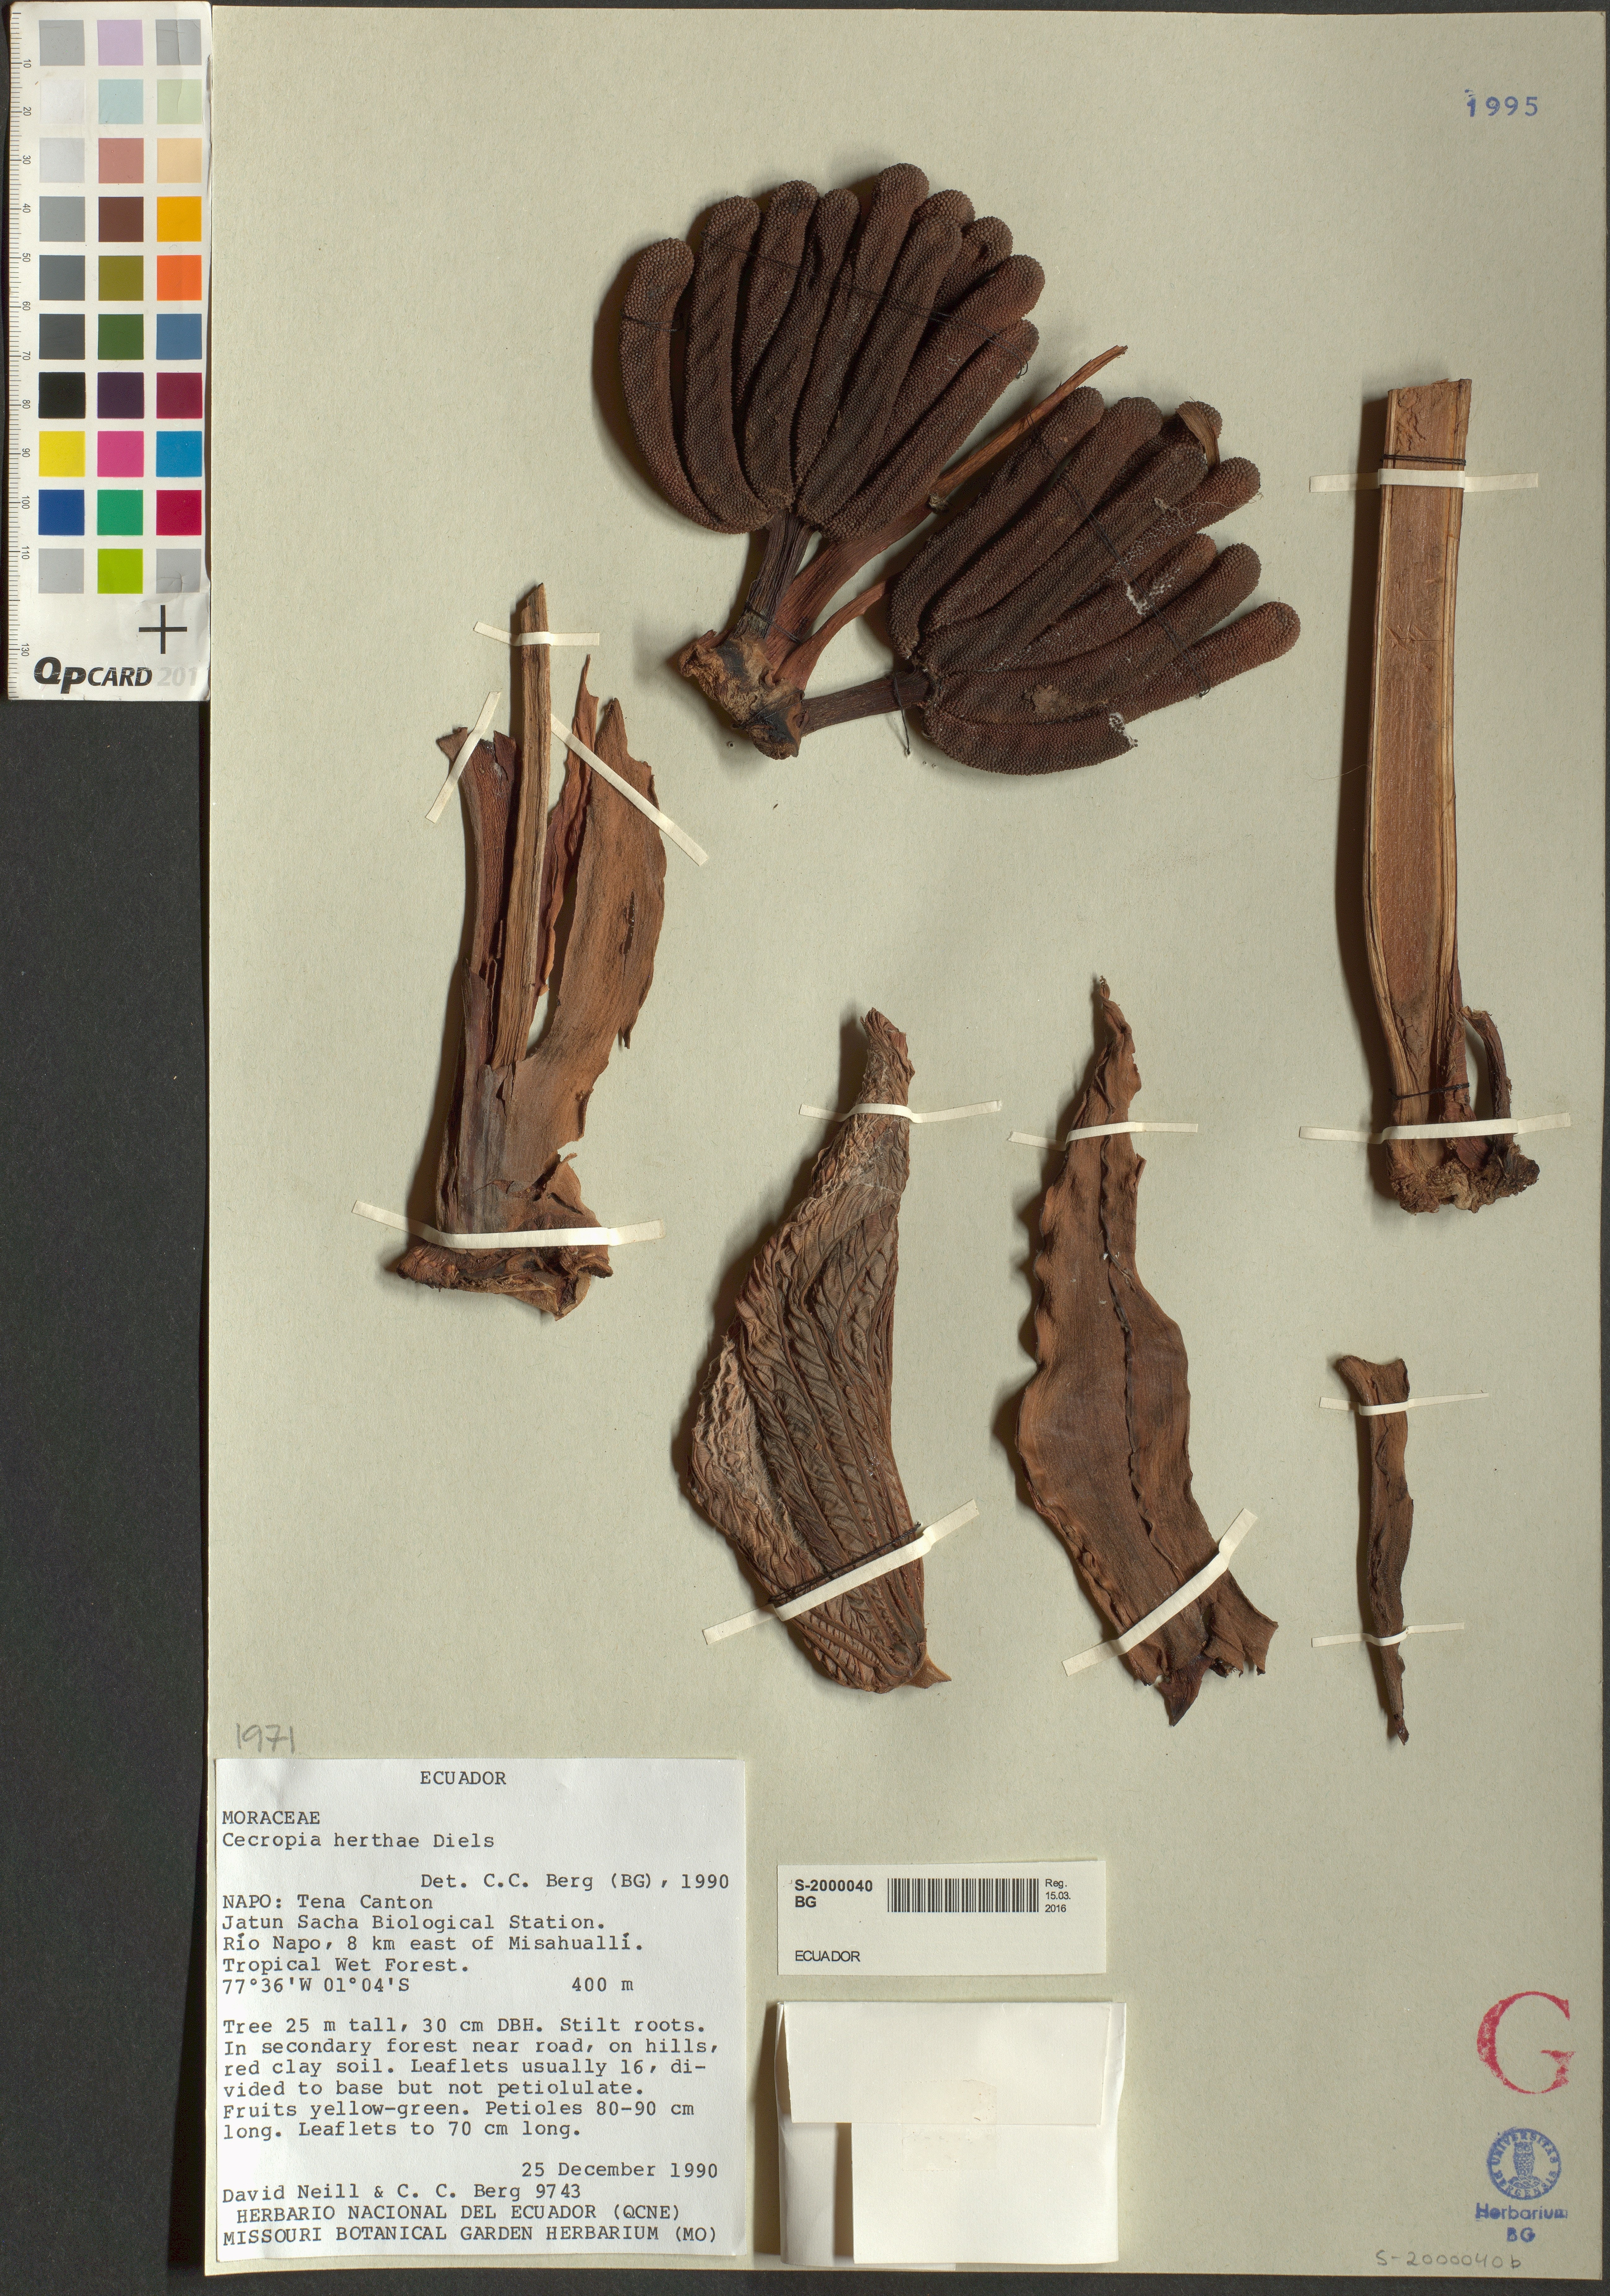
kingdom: Plantae
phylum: Tracheophyta
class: Magnoliopsida
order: Rosales
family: Urticaceae
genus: Cecropia
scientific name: Cecropia herthae
